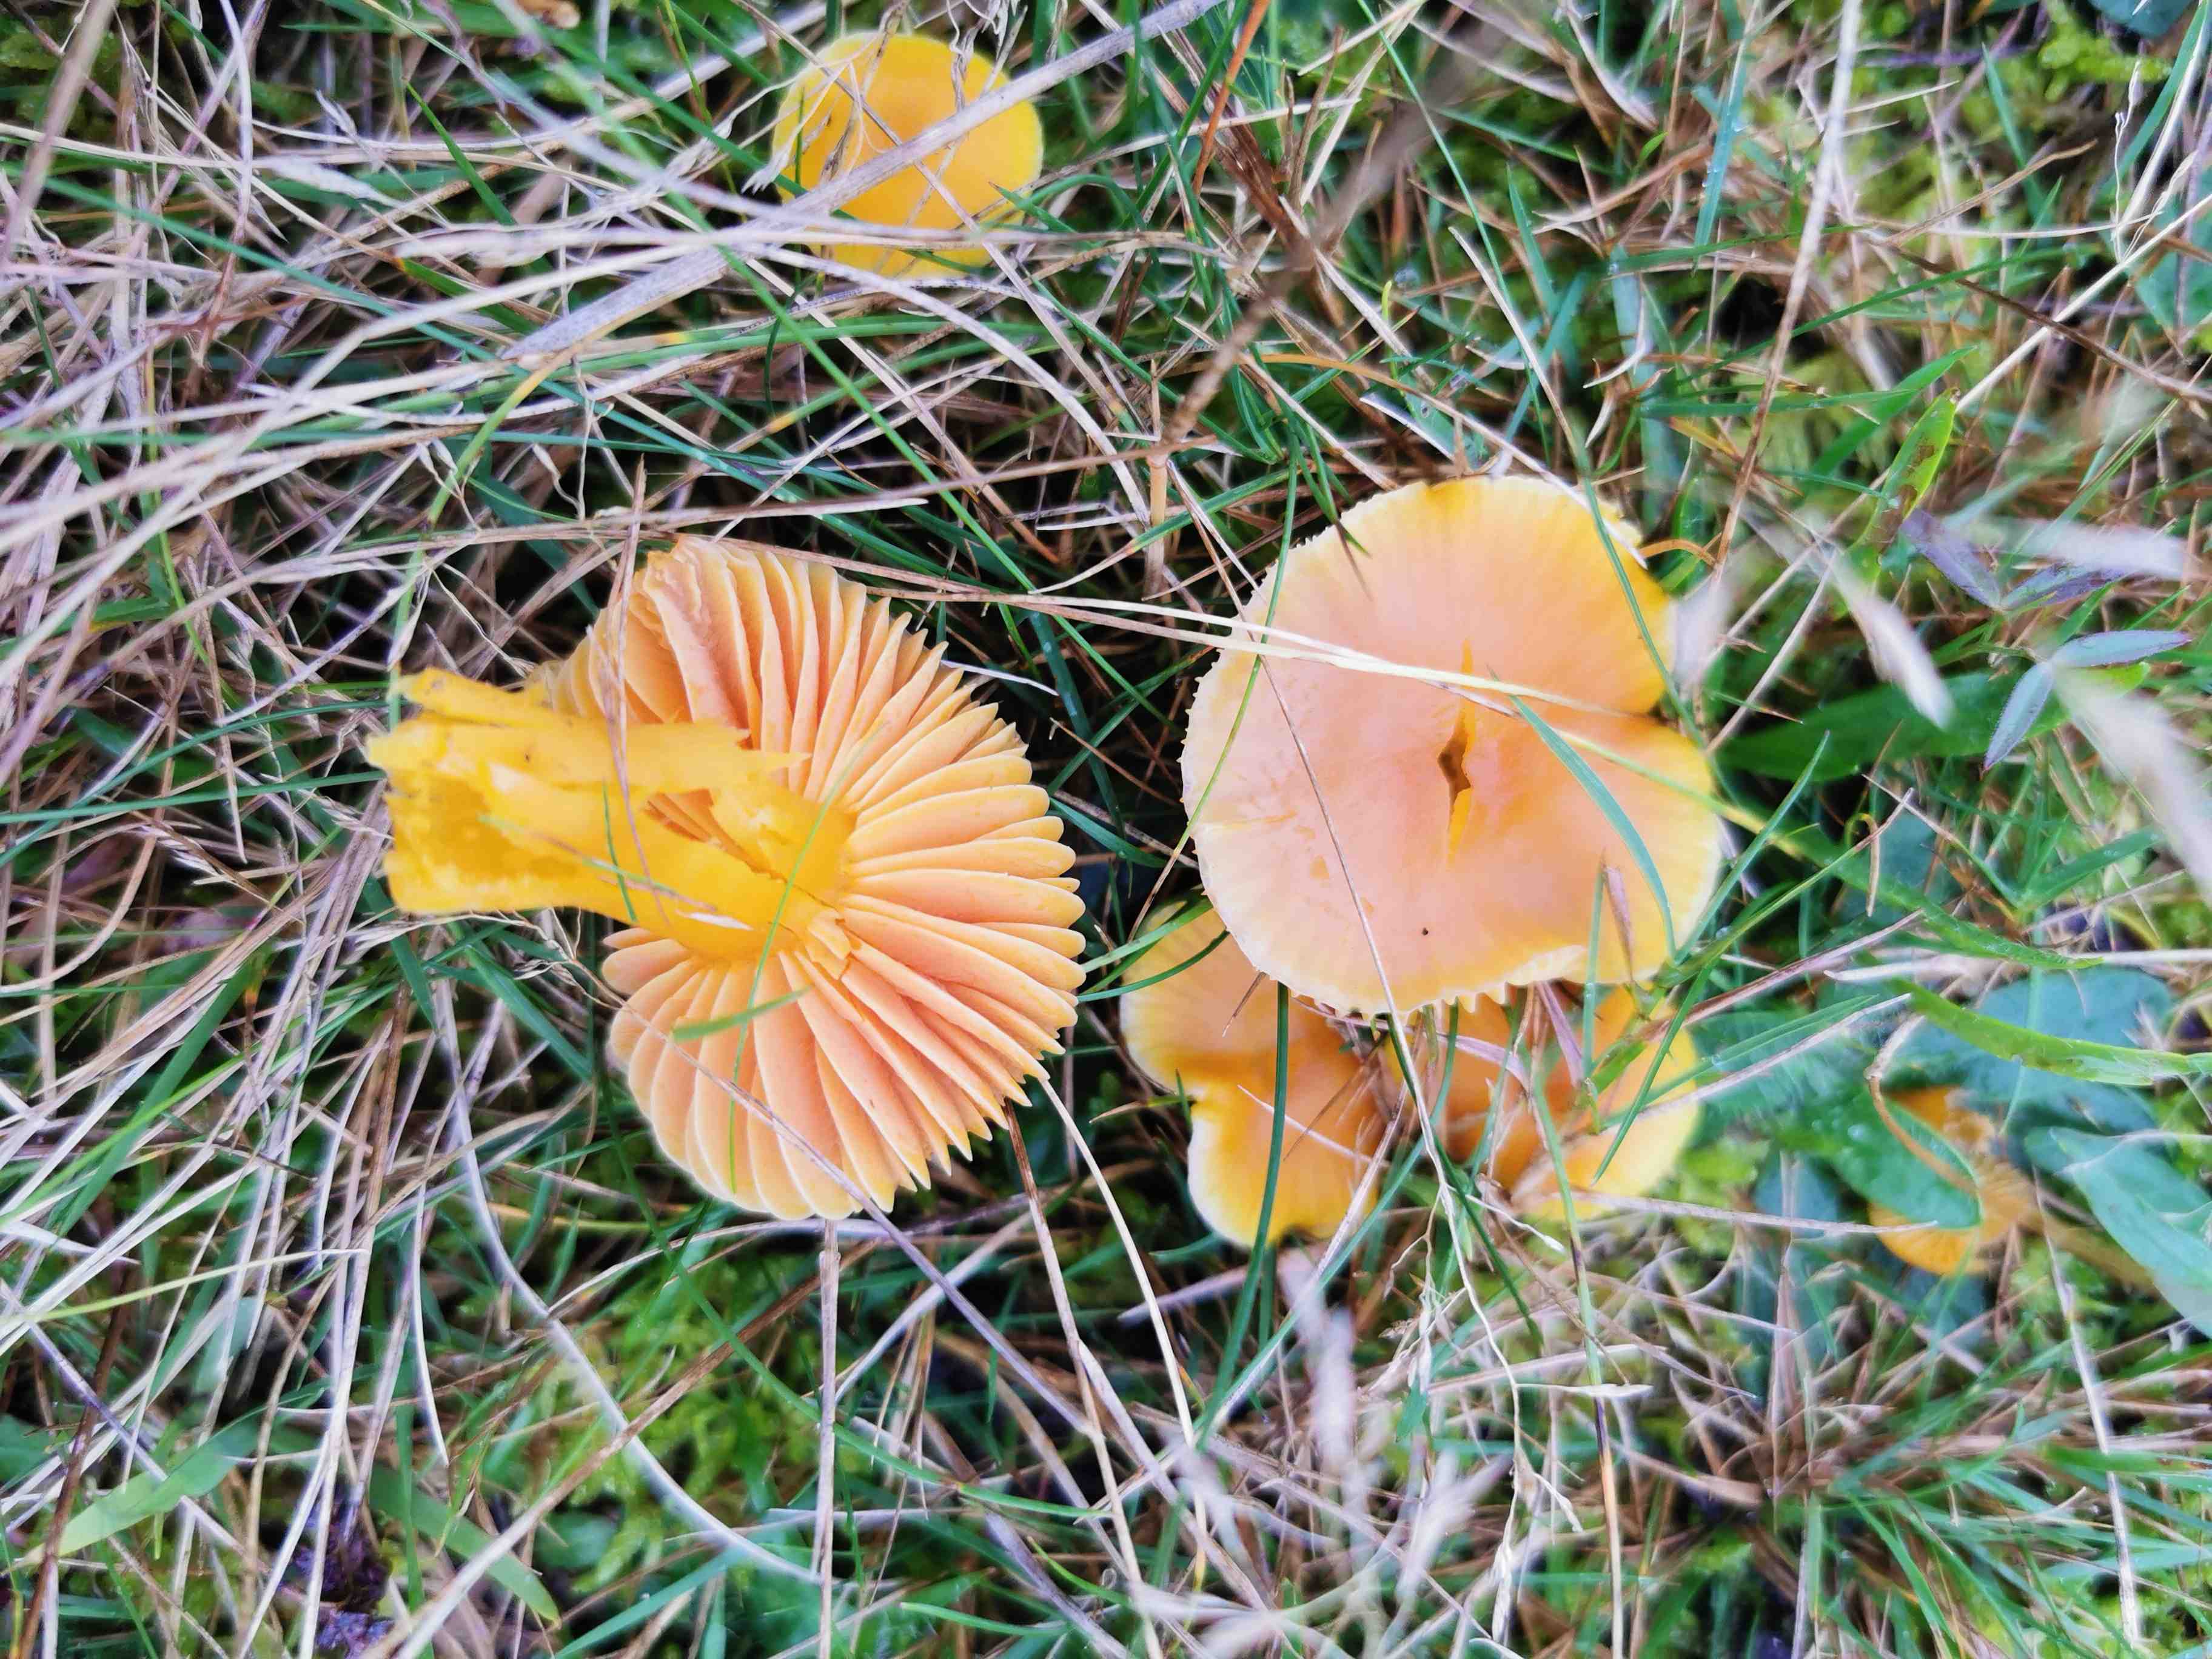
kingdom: Fungi
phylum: Basidiomycota
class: Agaricomycetes
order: Agaricales
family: Hygrophoraceae
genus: Hygrocybe
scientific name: Hygrocybe quieta
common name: tæge-vokshat
